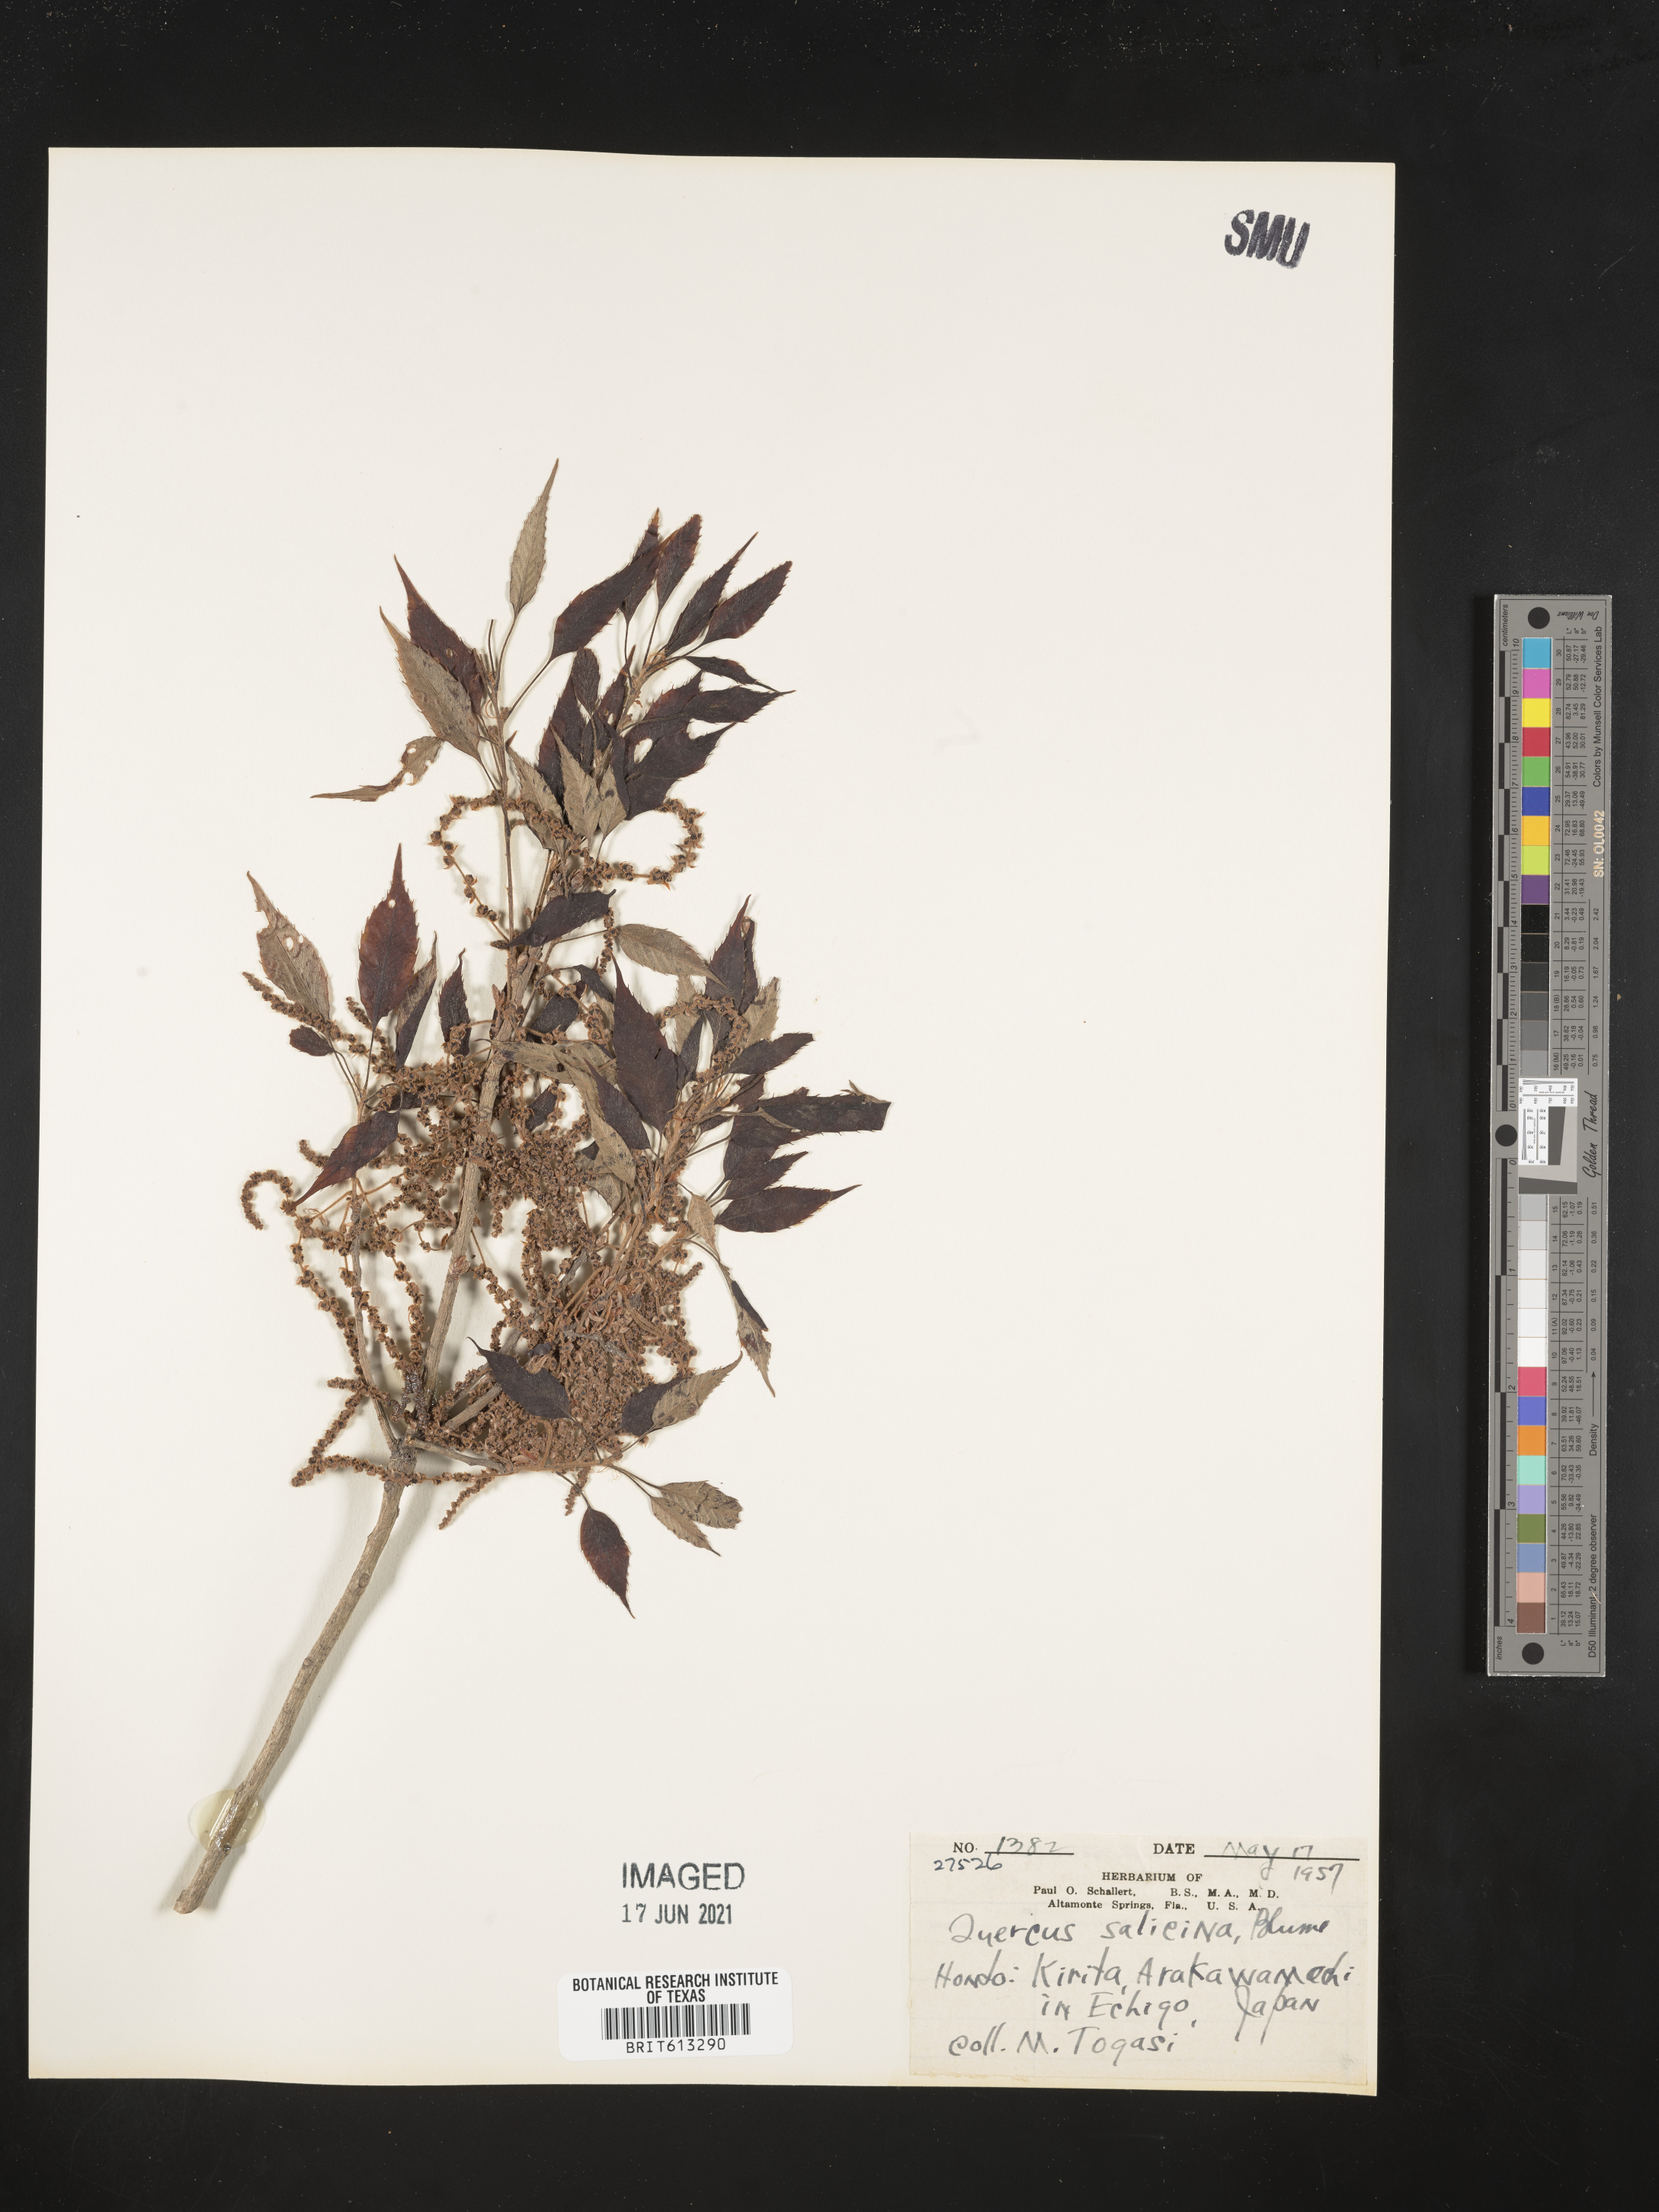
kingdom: Plantae
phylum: Tracheophyta
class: Magnoliopsida
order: Fagales
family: Fagaceae
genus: Quercus
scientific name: Quercus salicina
